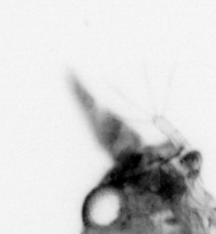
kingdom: Animalia
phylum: Arthropoda
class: Malacostraca
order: Decapoda
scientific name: Decapoda
